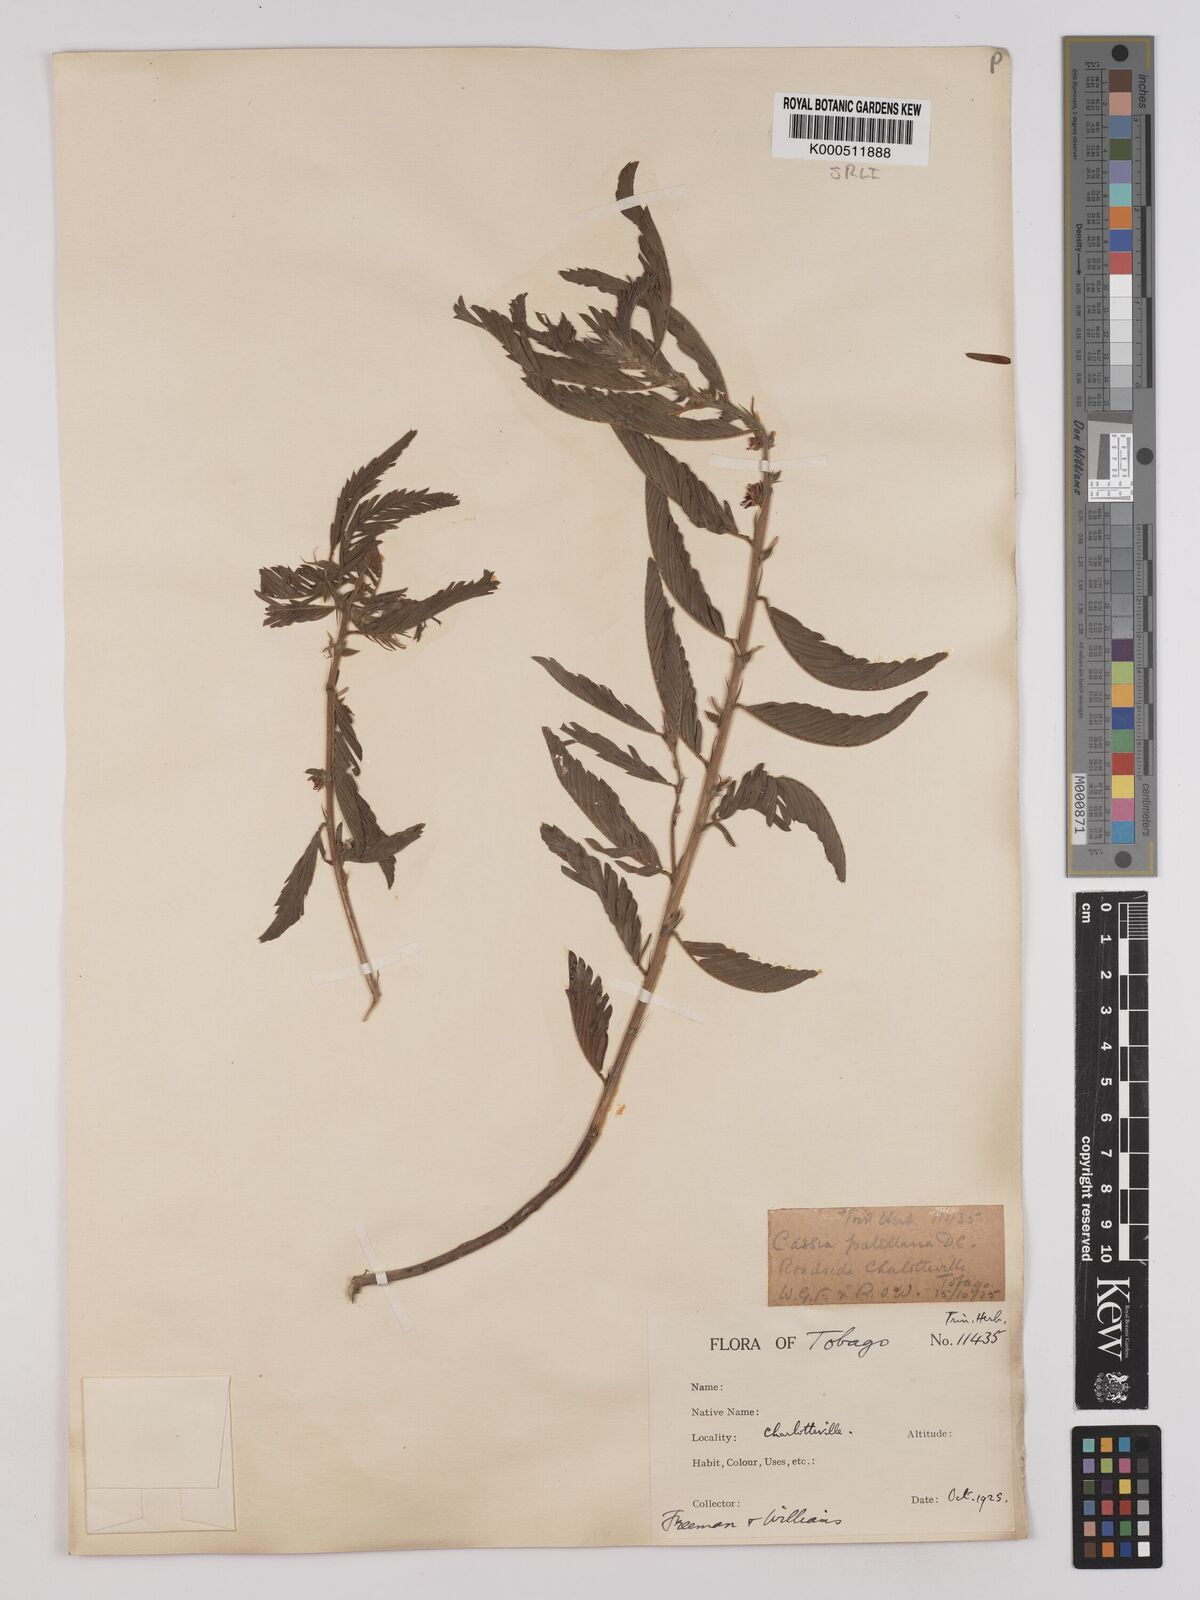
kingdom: Plantae
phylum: Tracheophyta
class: Magnoliopsida
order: Fabales
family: Fabaceae
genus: Chamaecrista
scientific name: Chamaecrista nictitans
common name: Sensitive cassia
